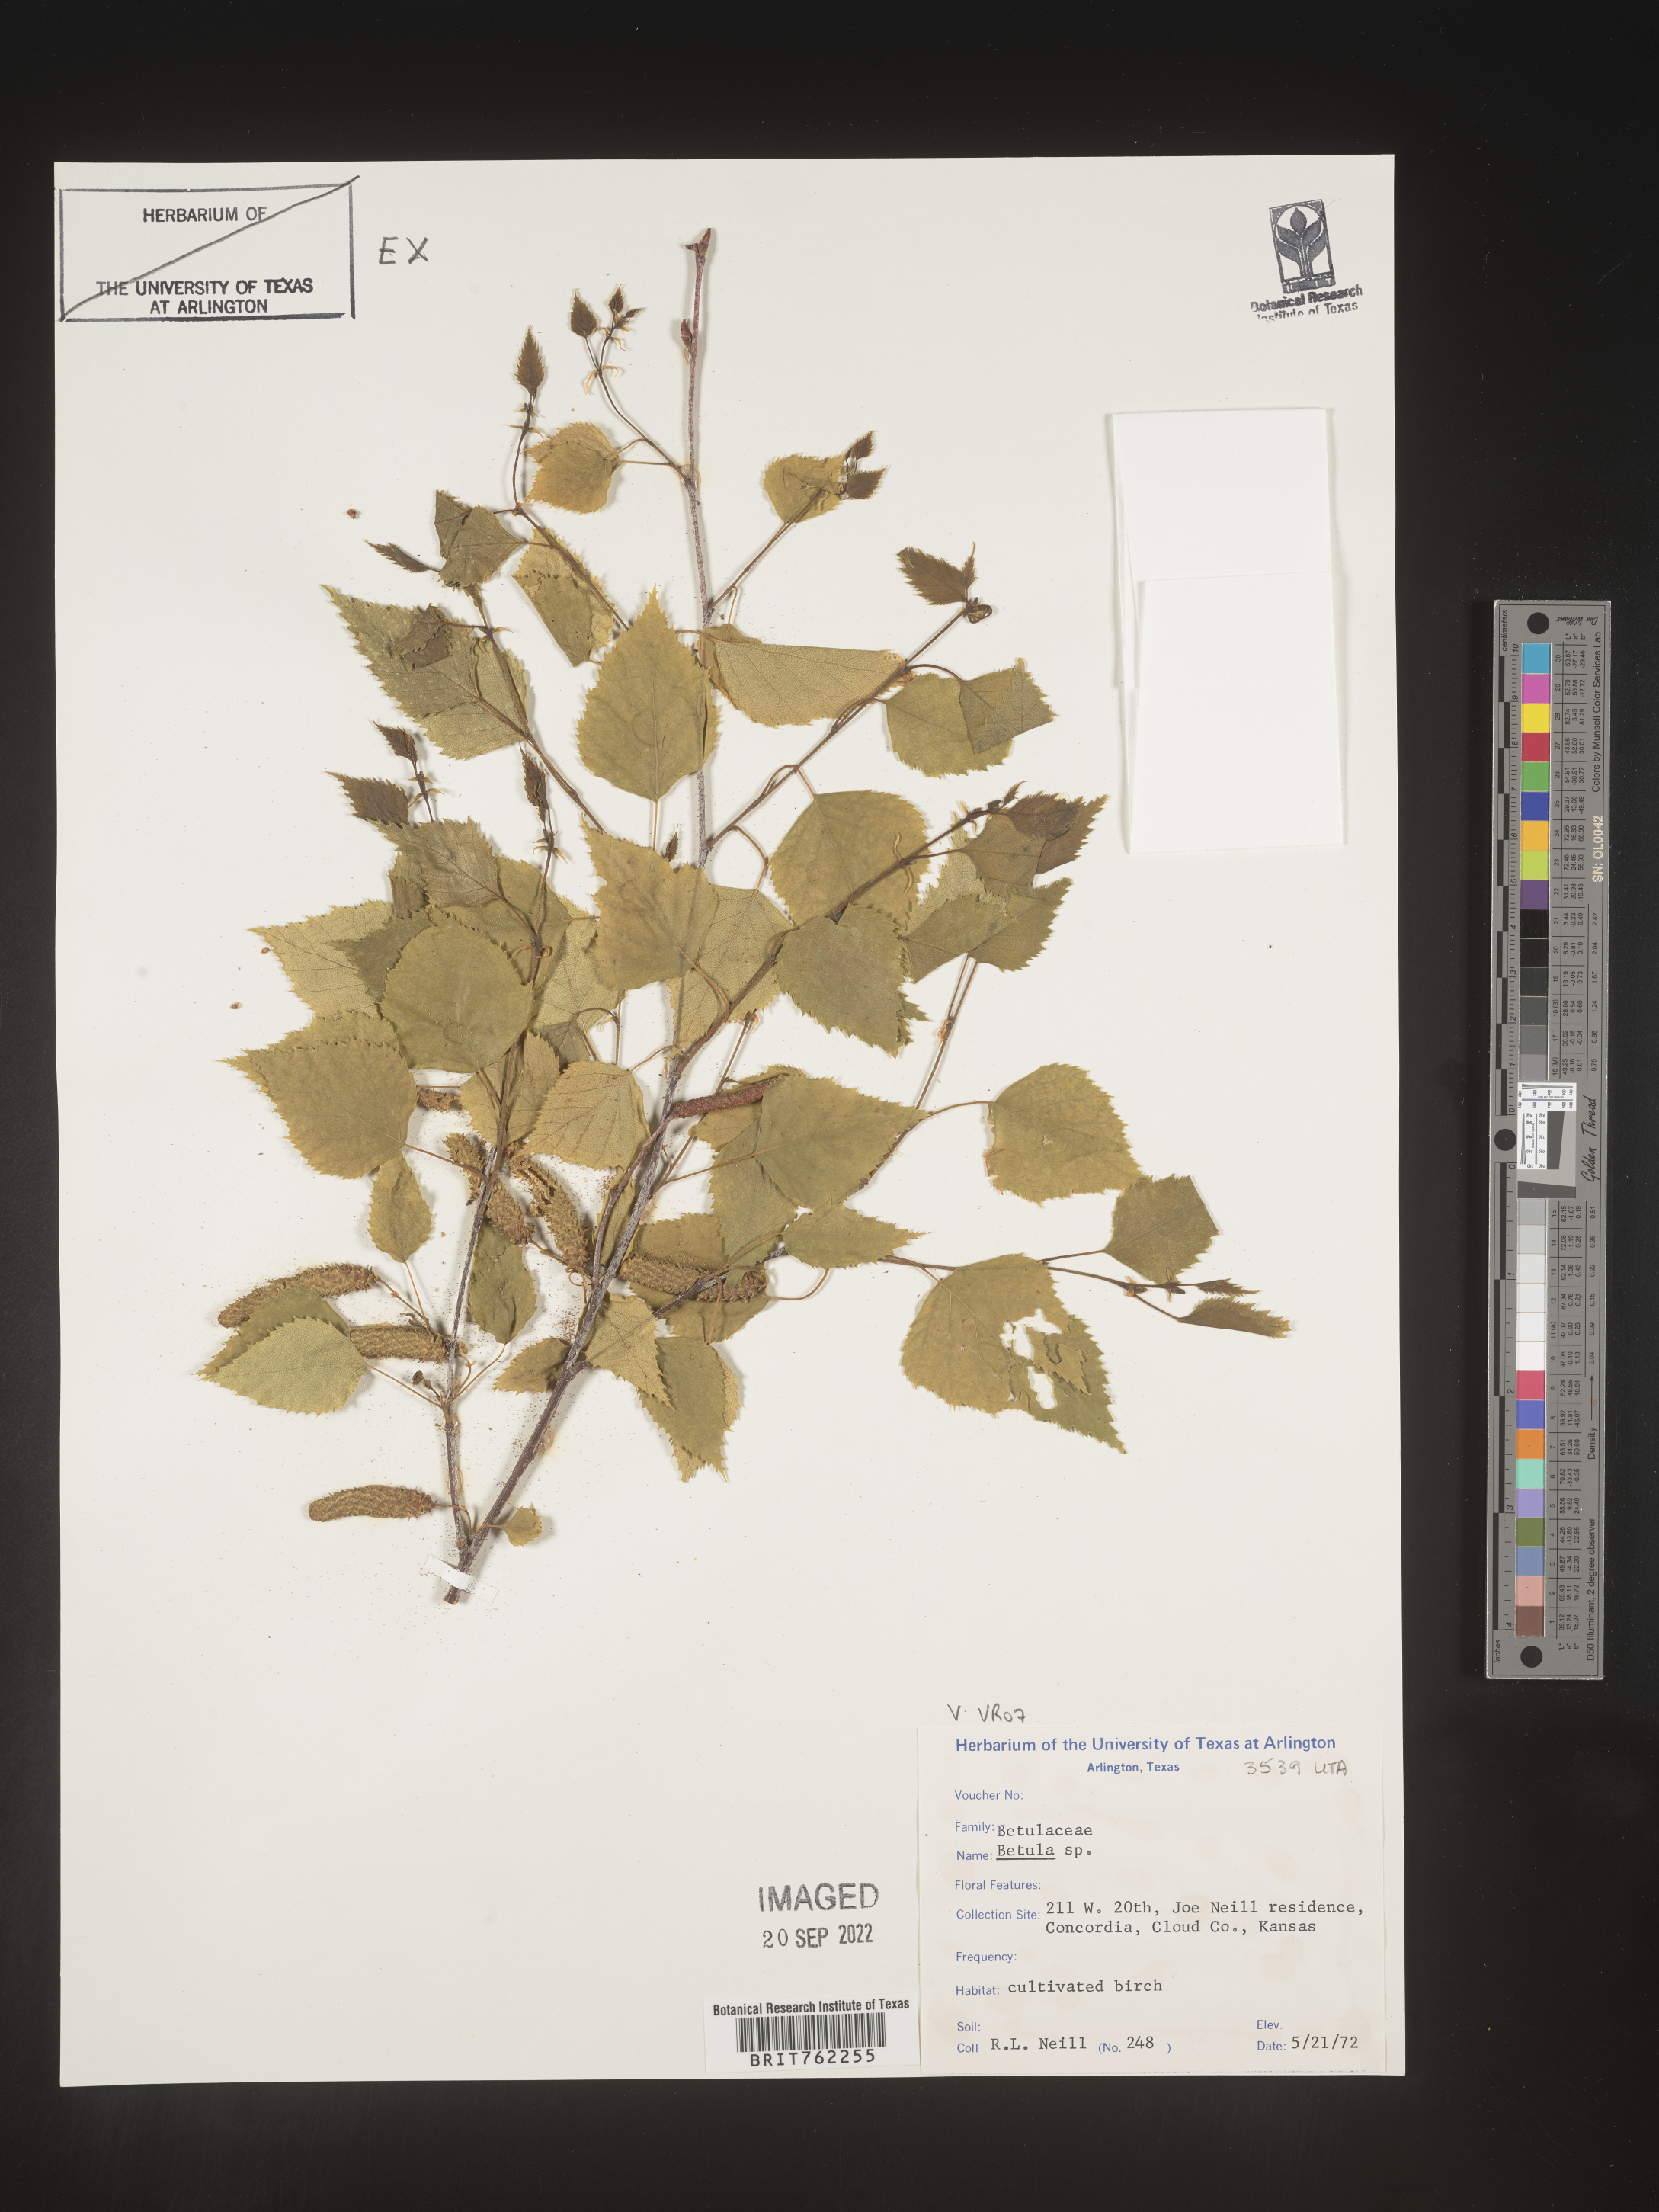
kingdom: Plantae
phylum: Tracheophyta
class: Magnoliopsida
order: Fagales
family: Betulaceae
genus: Betula
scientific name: Betula
